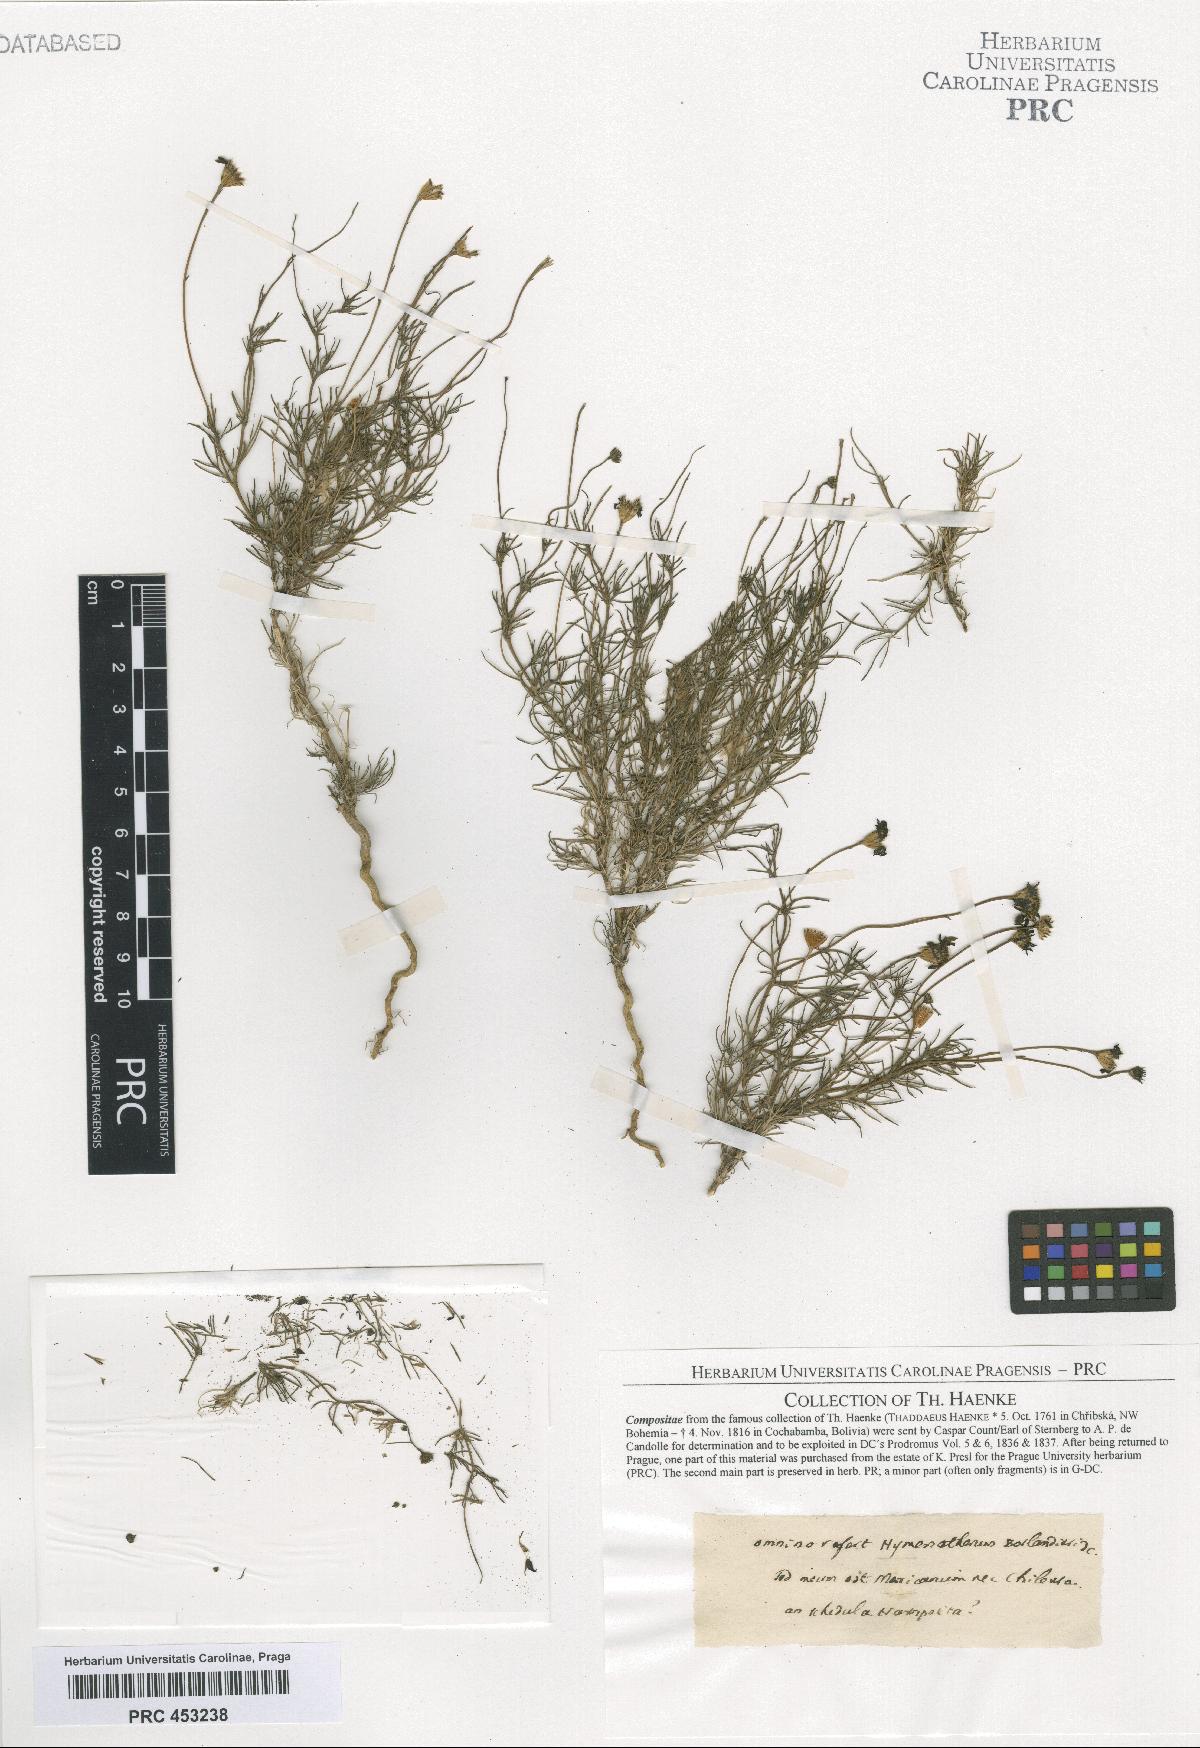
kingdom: Plantae
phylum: Tracheophyta
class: Magnoliopsida
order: Asterales
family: Asteraceae
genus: Thymophylla
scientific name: Thymophylla
